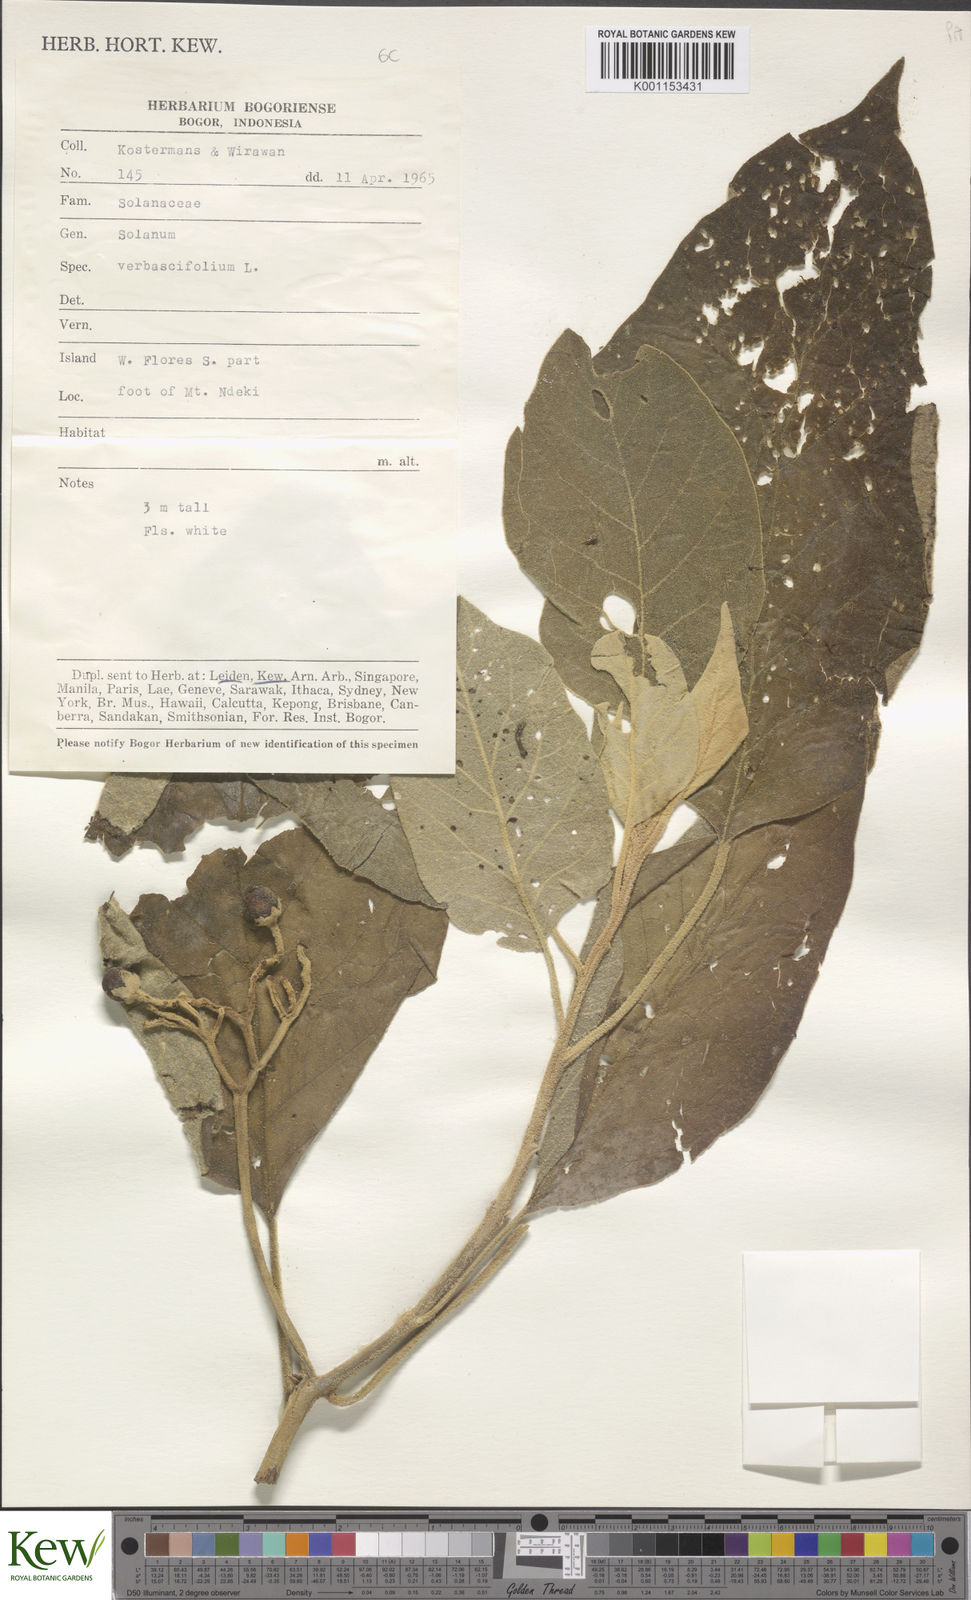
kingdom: Plantae
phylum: Tracheophyta
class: Magnoliopsida
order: Solanales
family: Solanaceae
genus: Solanum
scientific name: Solanum erianthum
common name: Tobacco-tree
